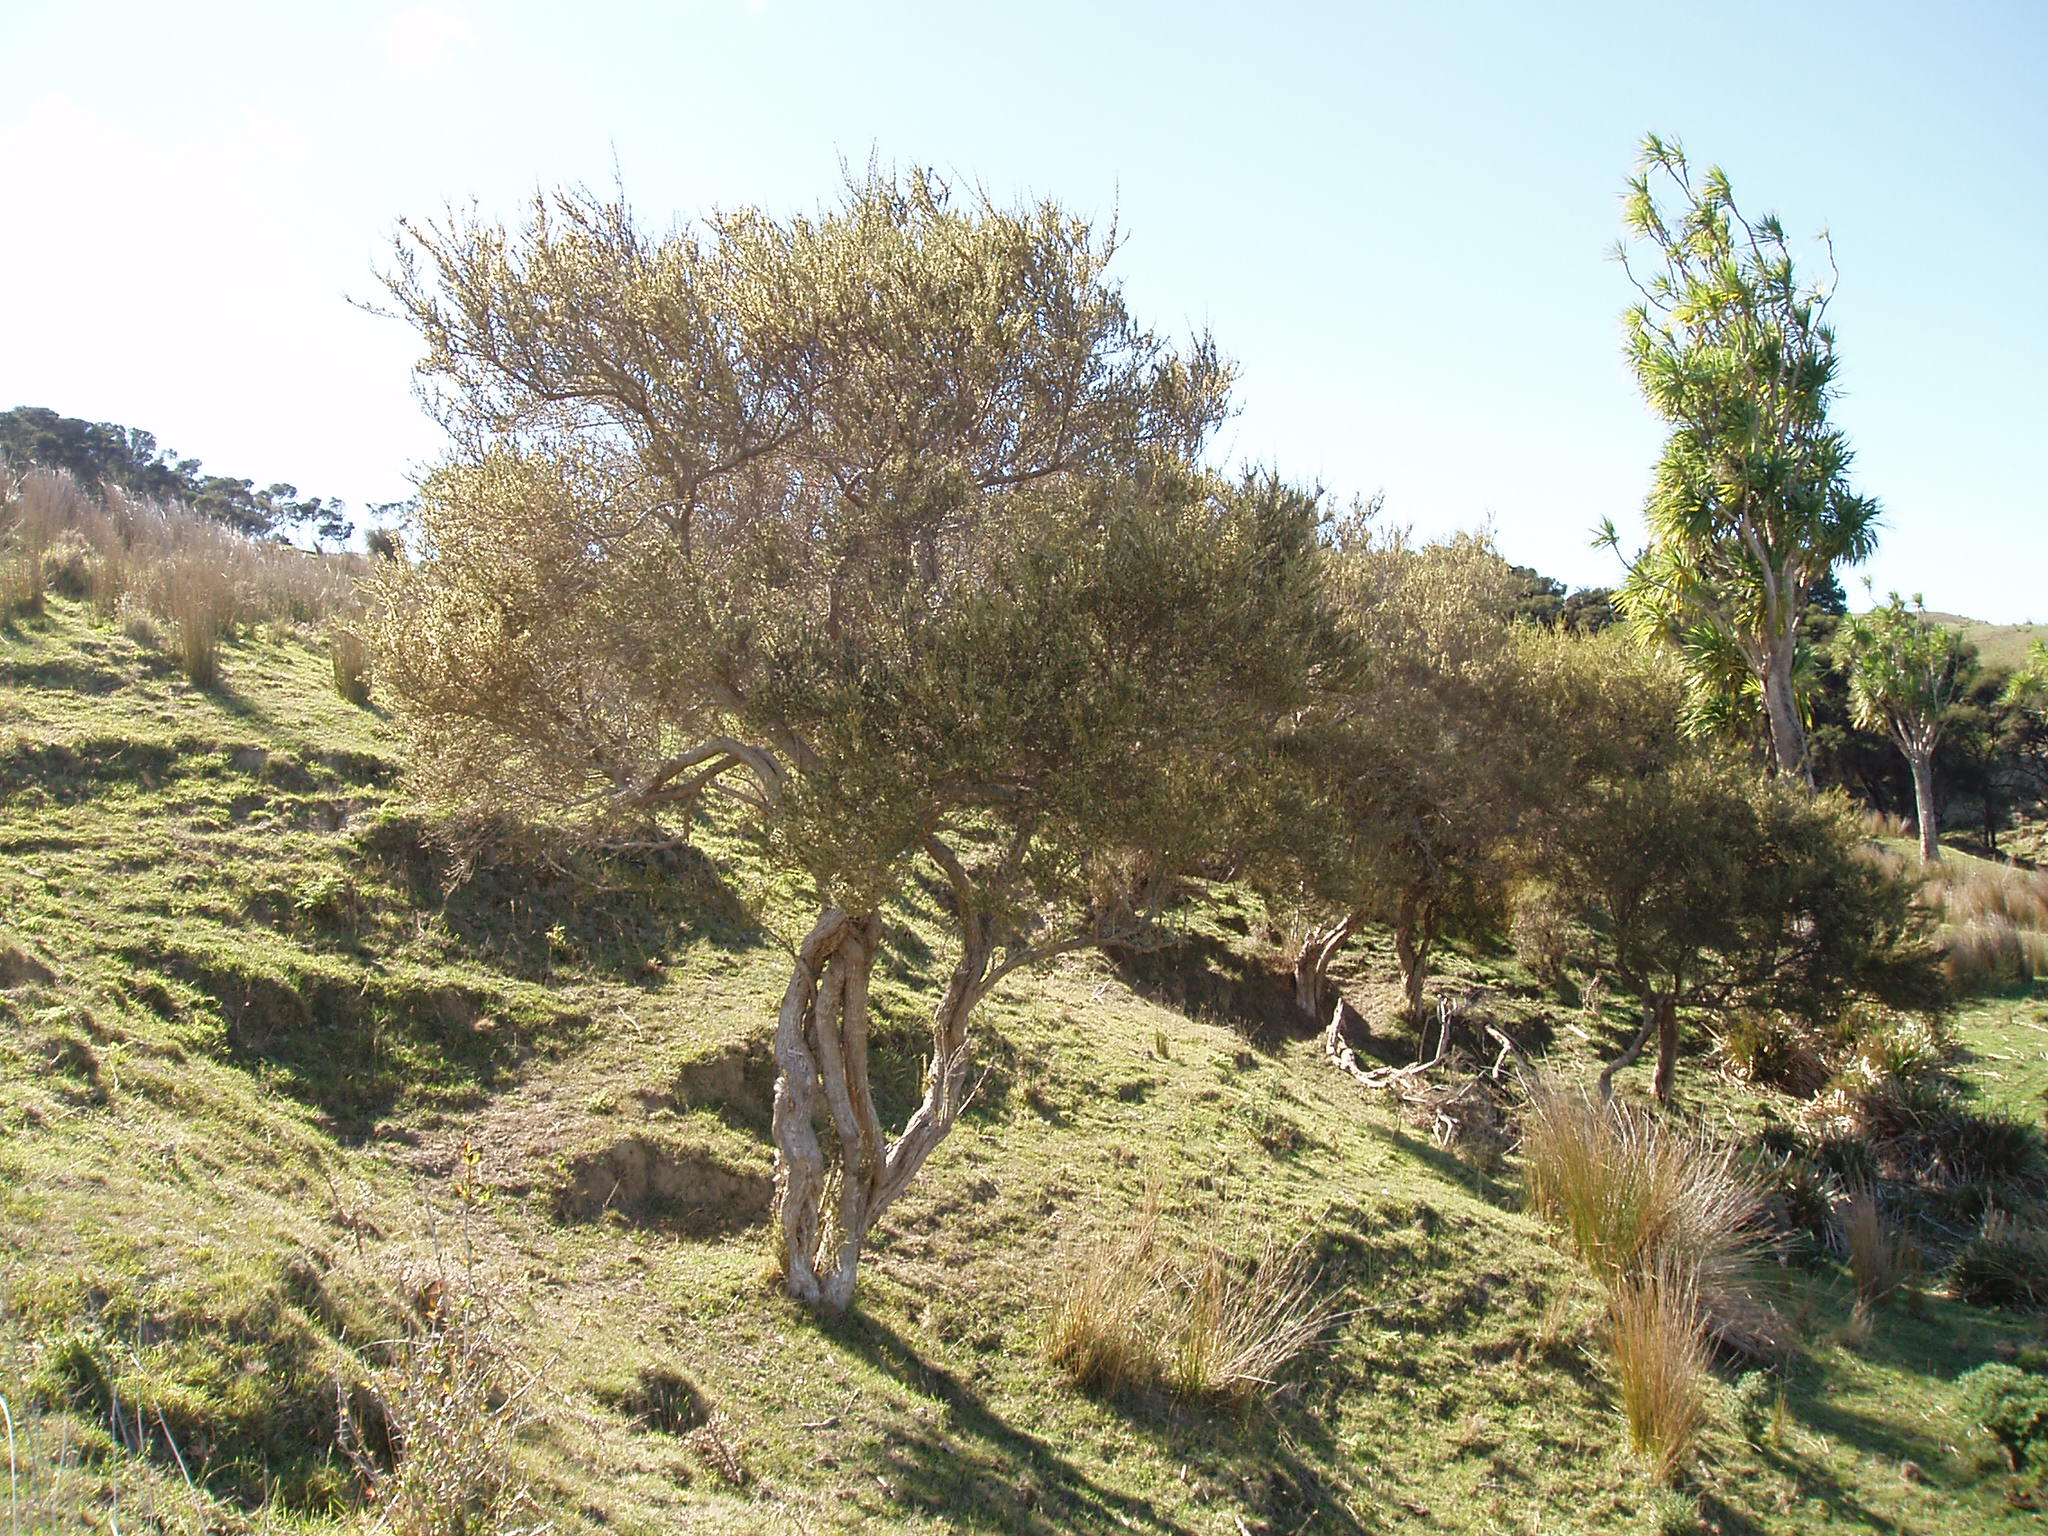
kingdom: Plantae
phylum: Tracheophyta
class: Magnoliopsida
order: Asterales
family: Asteraceae
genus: Olearia
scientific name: Olearia solandri
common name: Coastal daisybush
